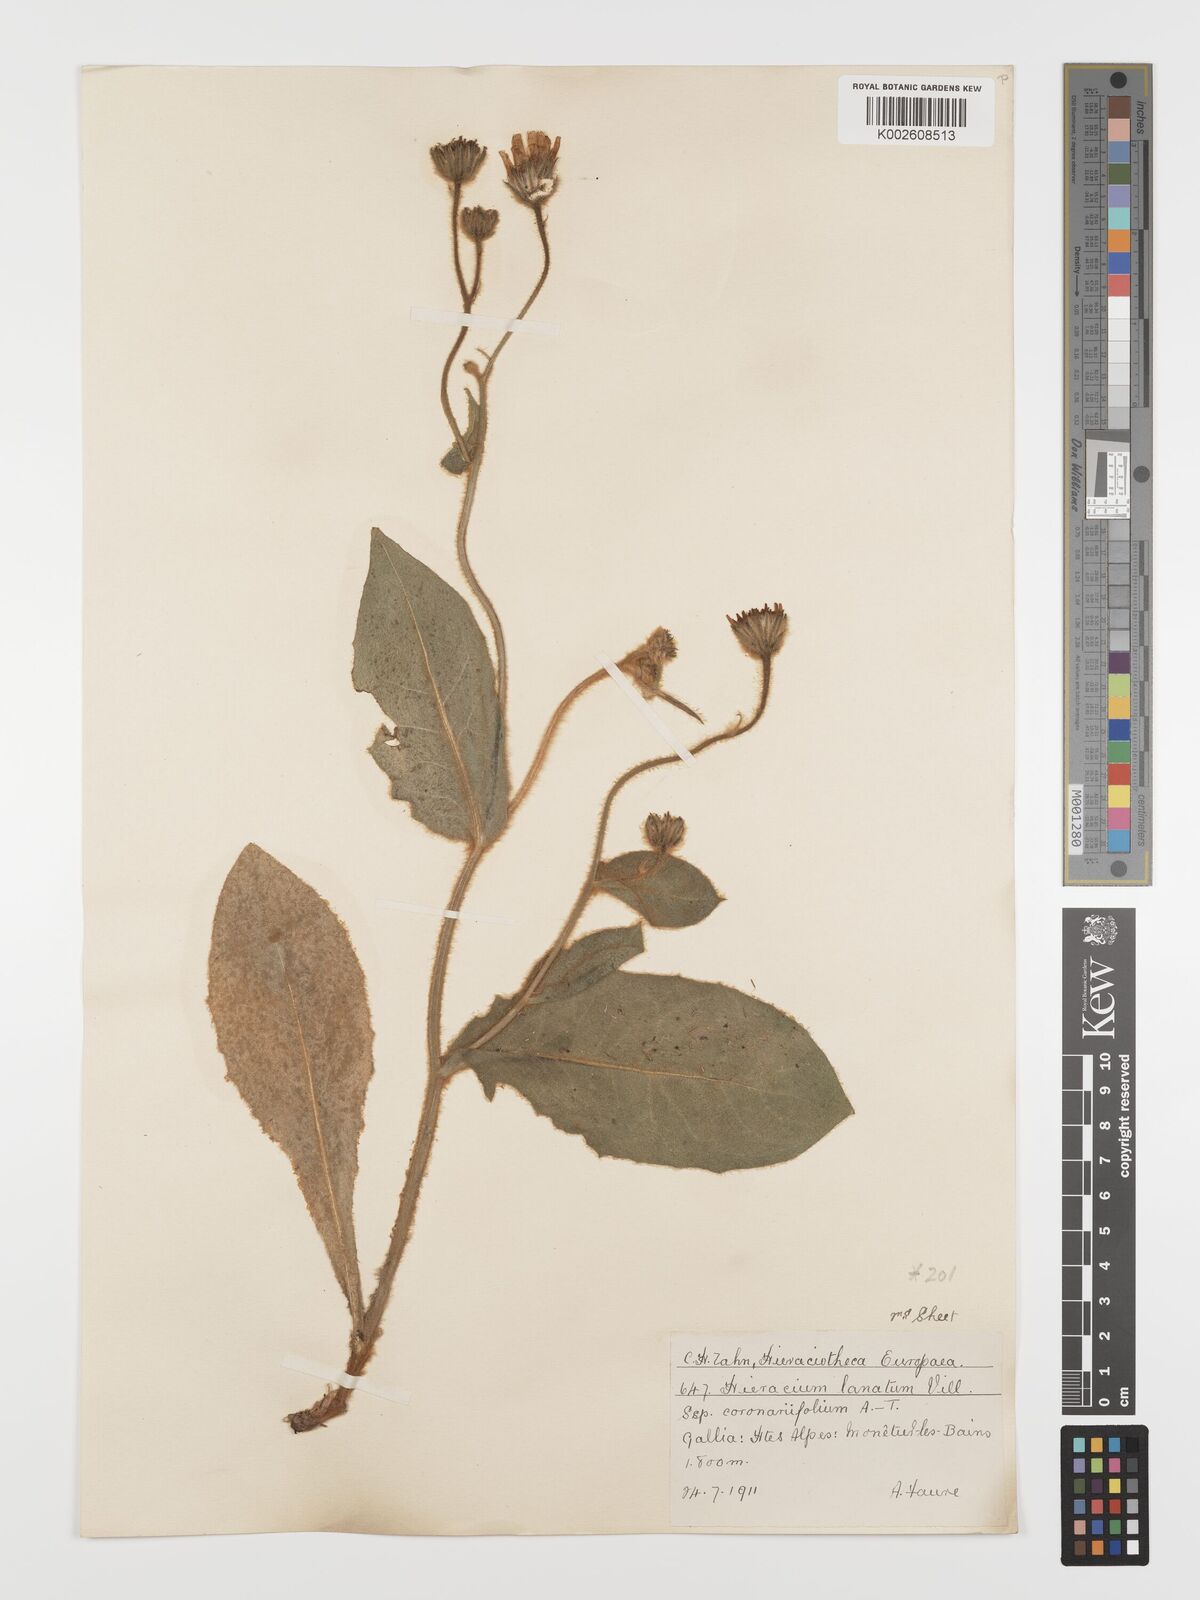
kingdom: Plantae
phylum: Tracheophyta
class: Magnoliopsida
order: Asterales
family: Asteraceae
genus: Hieracium
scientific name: Hieracium coronariifolium
